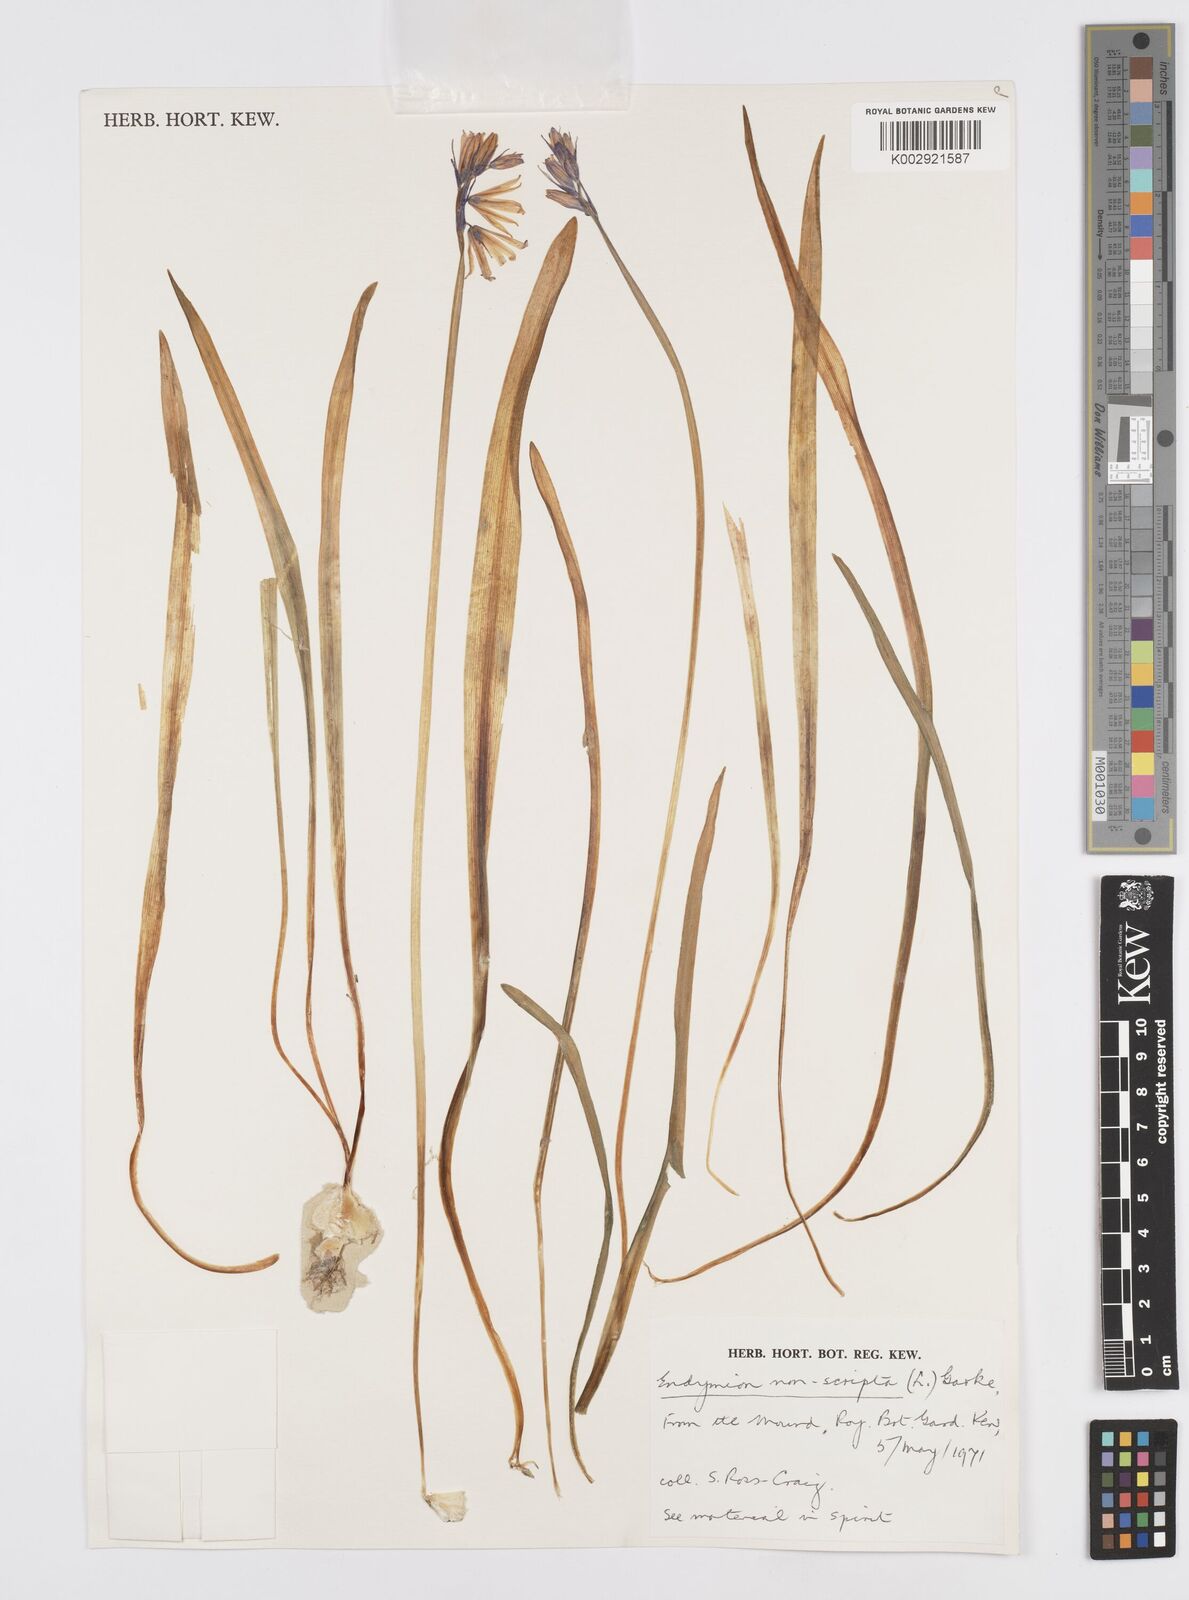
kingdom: Plantae
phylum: Tracheophyta
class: Liliopsida
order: Asparagales
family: Asparagaceae
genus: Hyacinthoides
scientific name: Hyacinthoides non-scripta
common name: Bluebell
